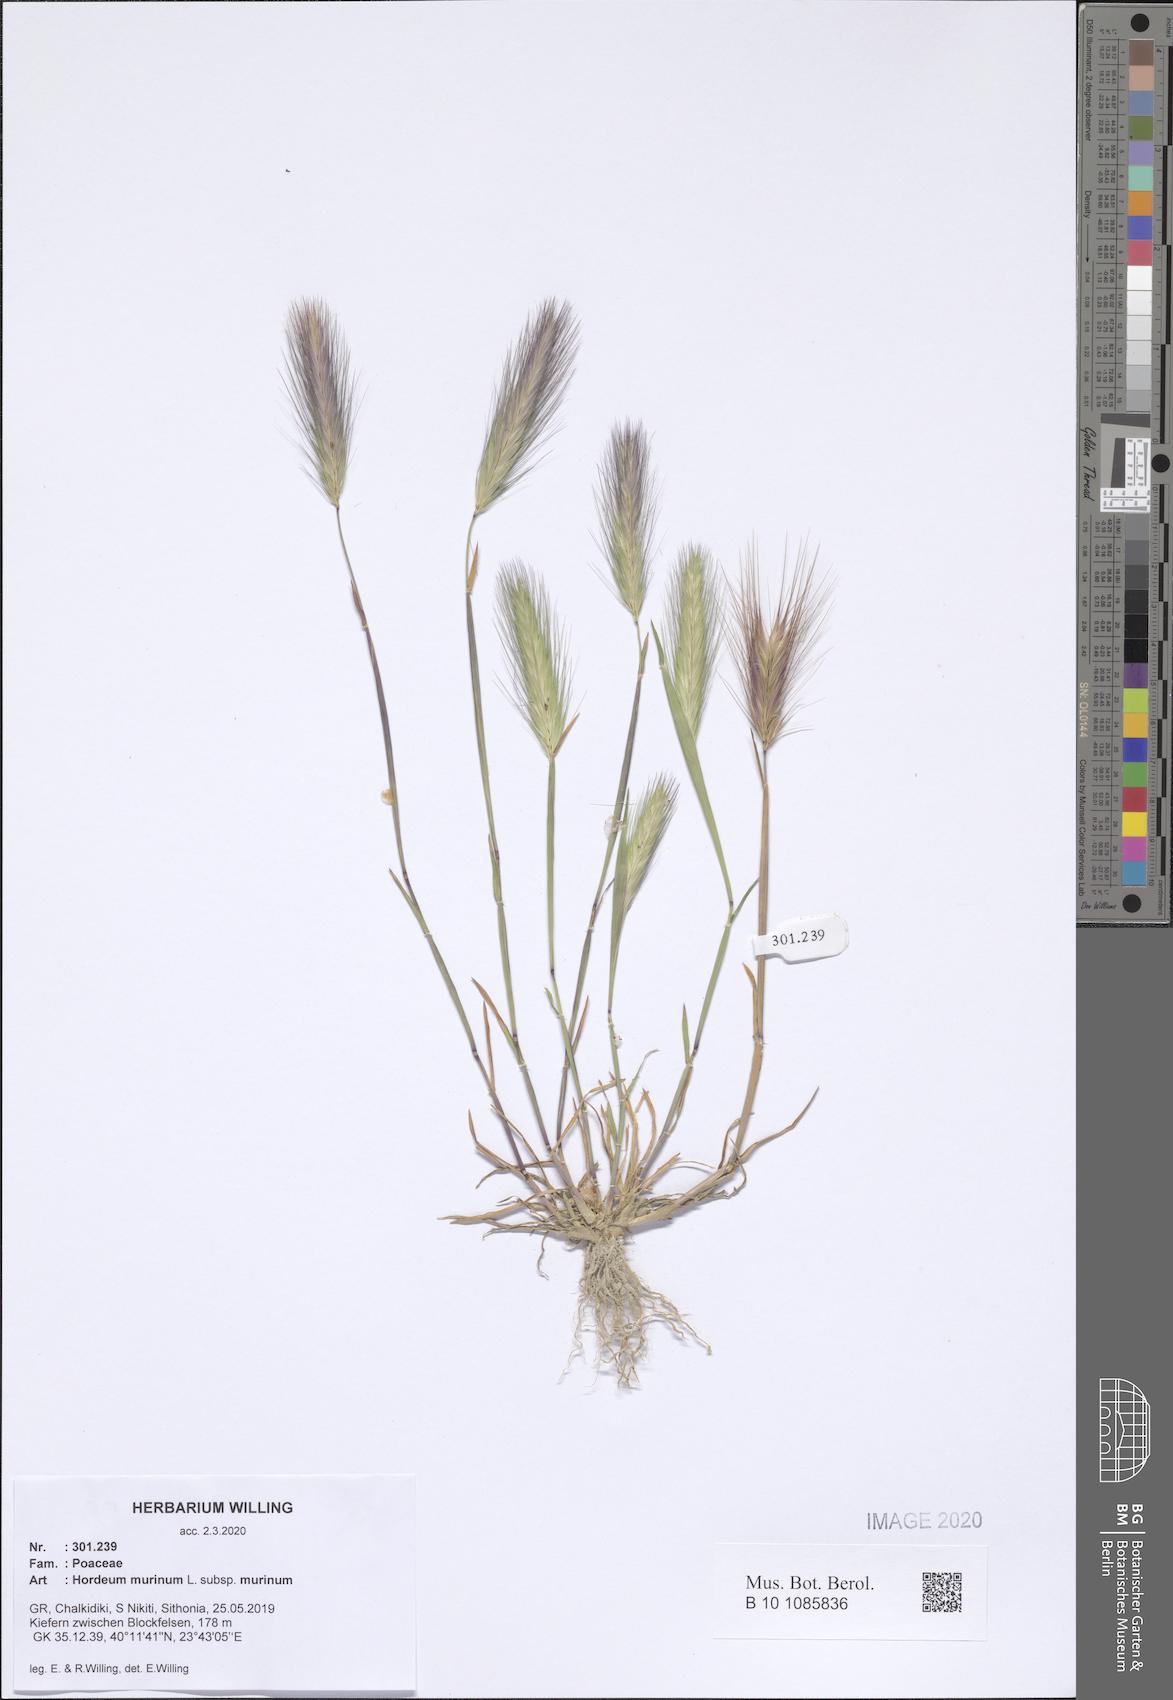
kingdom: Plantae
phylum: Tracheophyta
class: Liliopsida
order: Poales
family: Poaceae
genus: Hordeum
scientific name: Hordeum murinum
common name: Wall barley
